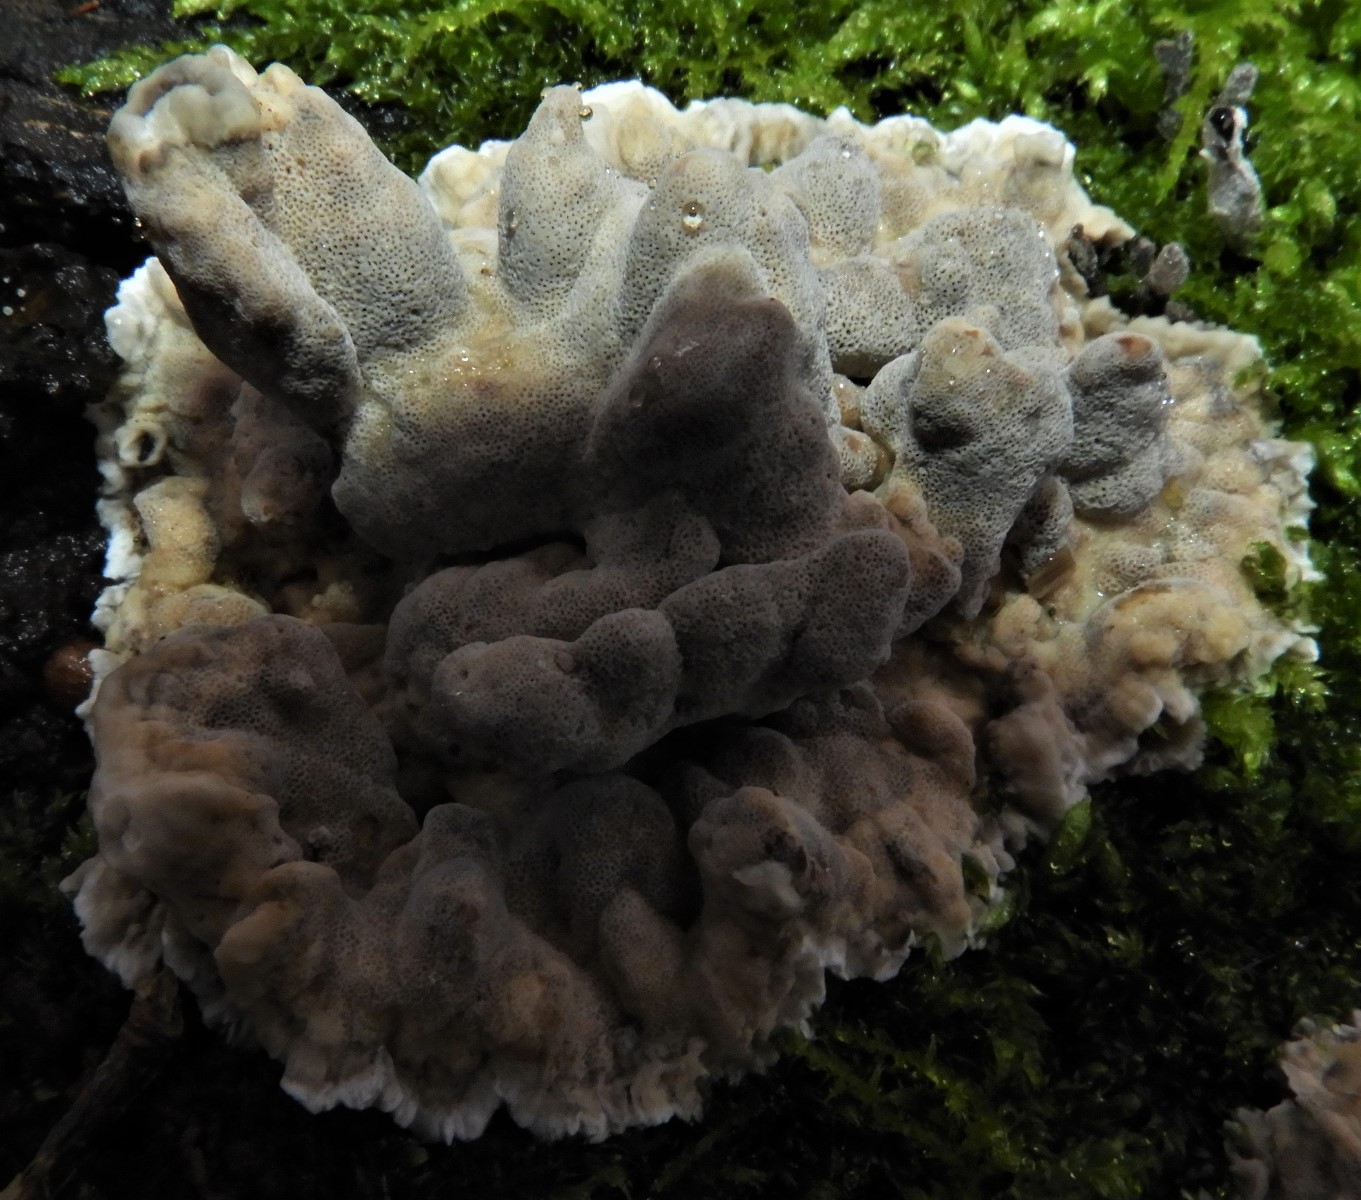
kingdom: Fungi
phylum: Basidiomycota
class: Agaricomycetes
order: Polyporales
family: Phanerochaetaceae
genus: Bjerkandera
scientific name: Bjerkandera adusta
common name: sveden sodporesvamp
